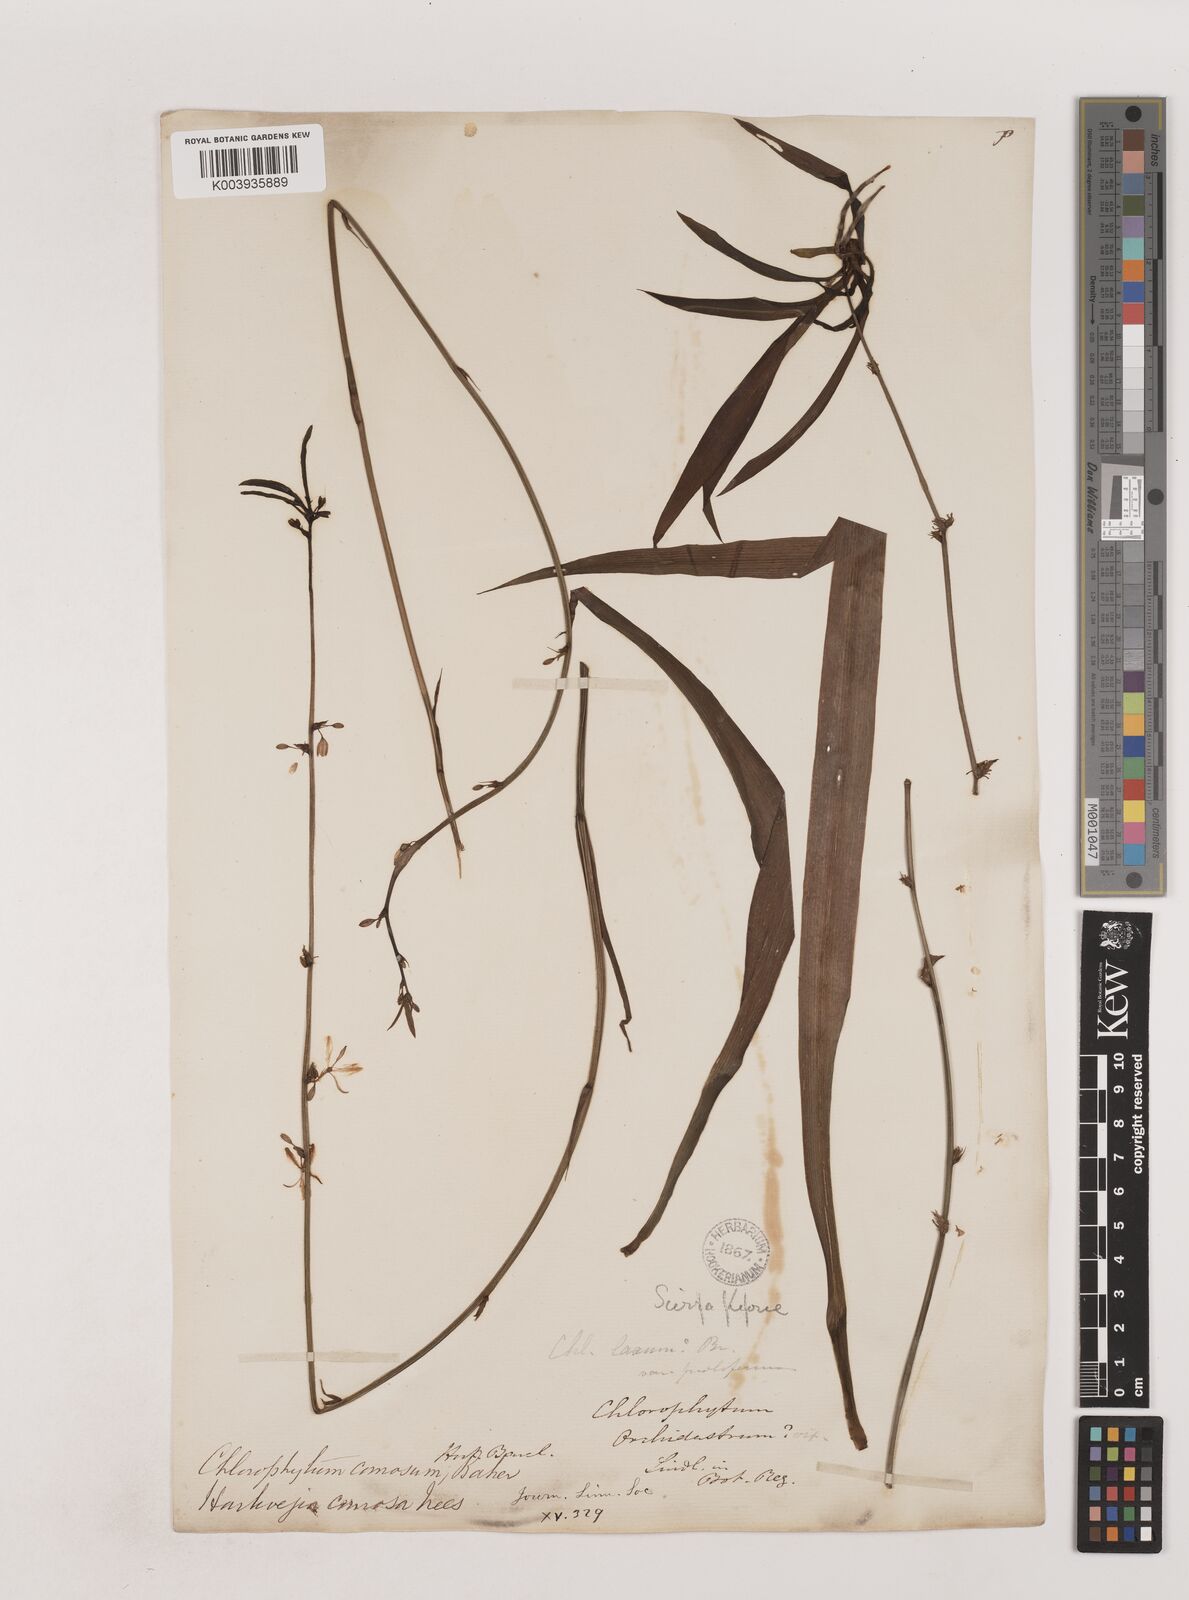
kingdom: Plantae
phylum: Tracheophyta
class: Liliopsida
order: Asparagales
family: Asparagaceae
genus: Chlorophytum
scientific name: Chlorophytum comosum
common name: Spider plant
